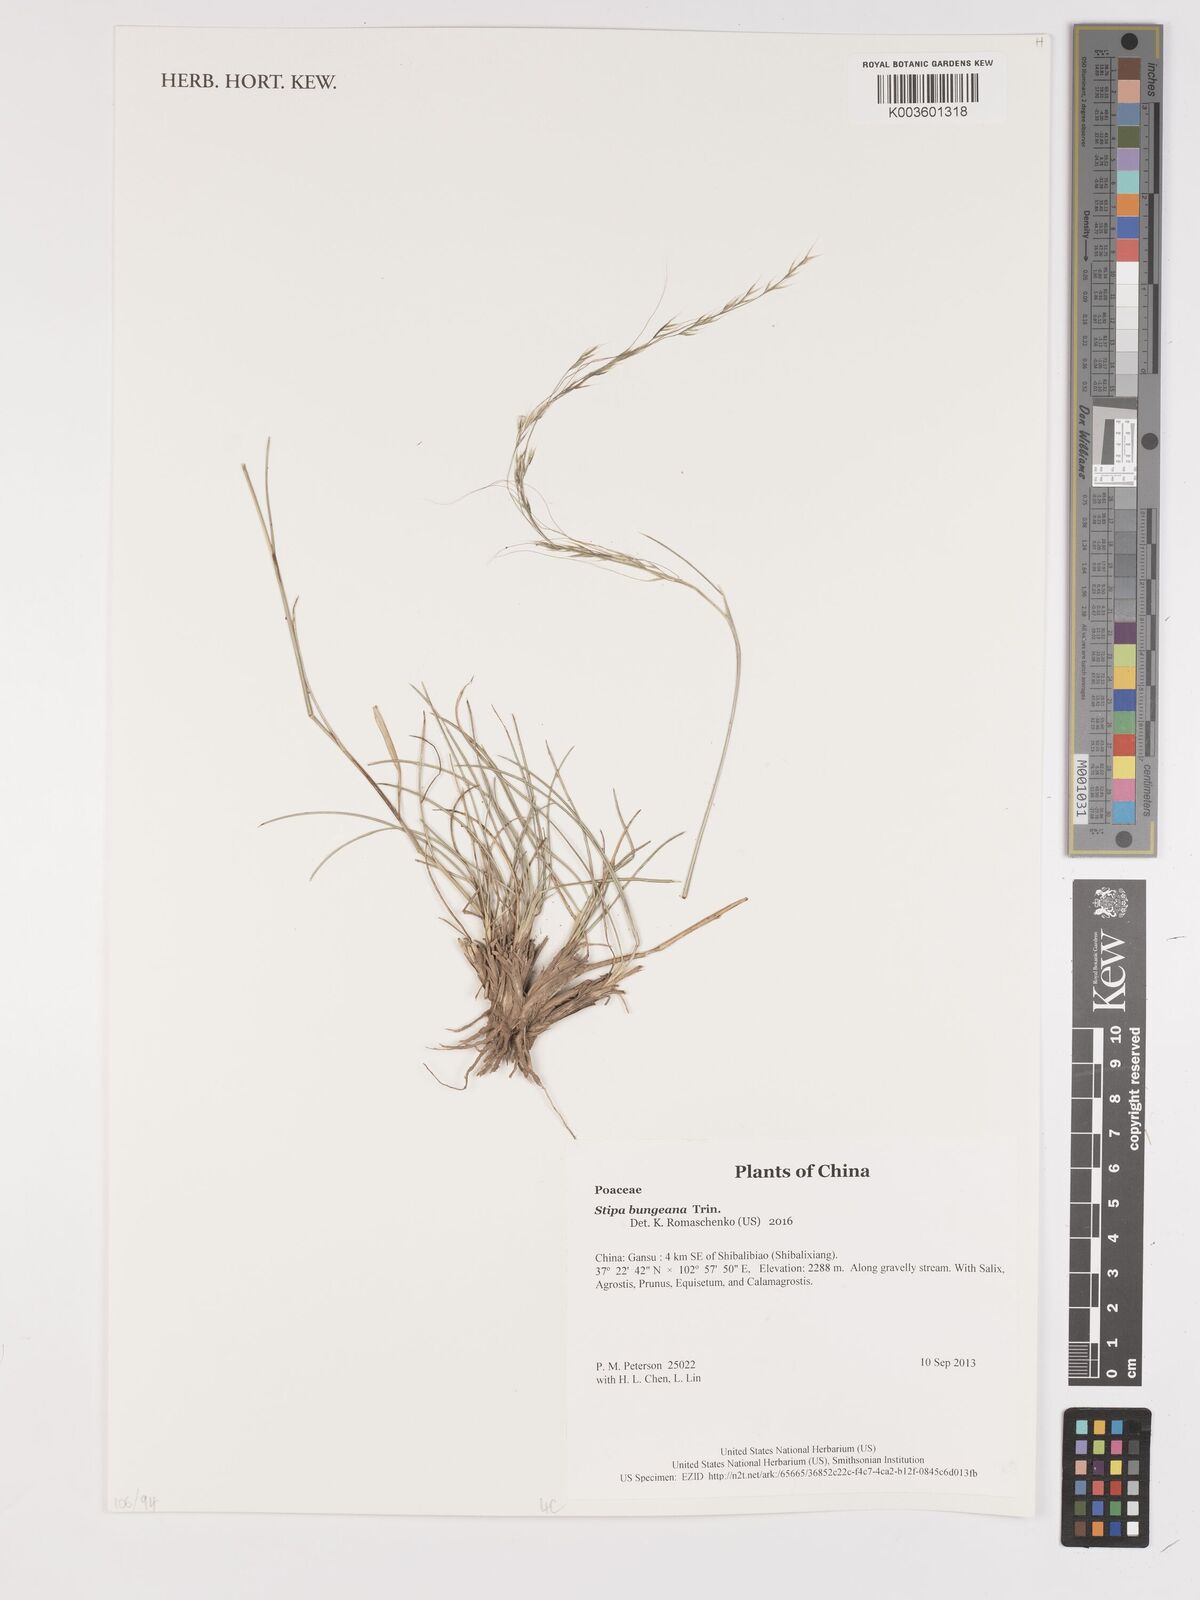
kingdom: Plantae
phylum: Tracheophyta
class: Liliopsida
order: Poales
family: Poaceae
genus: Stipa
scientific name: Stipa bungeana
